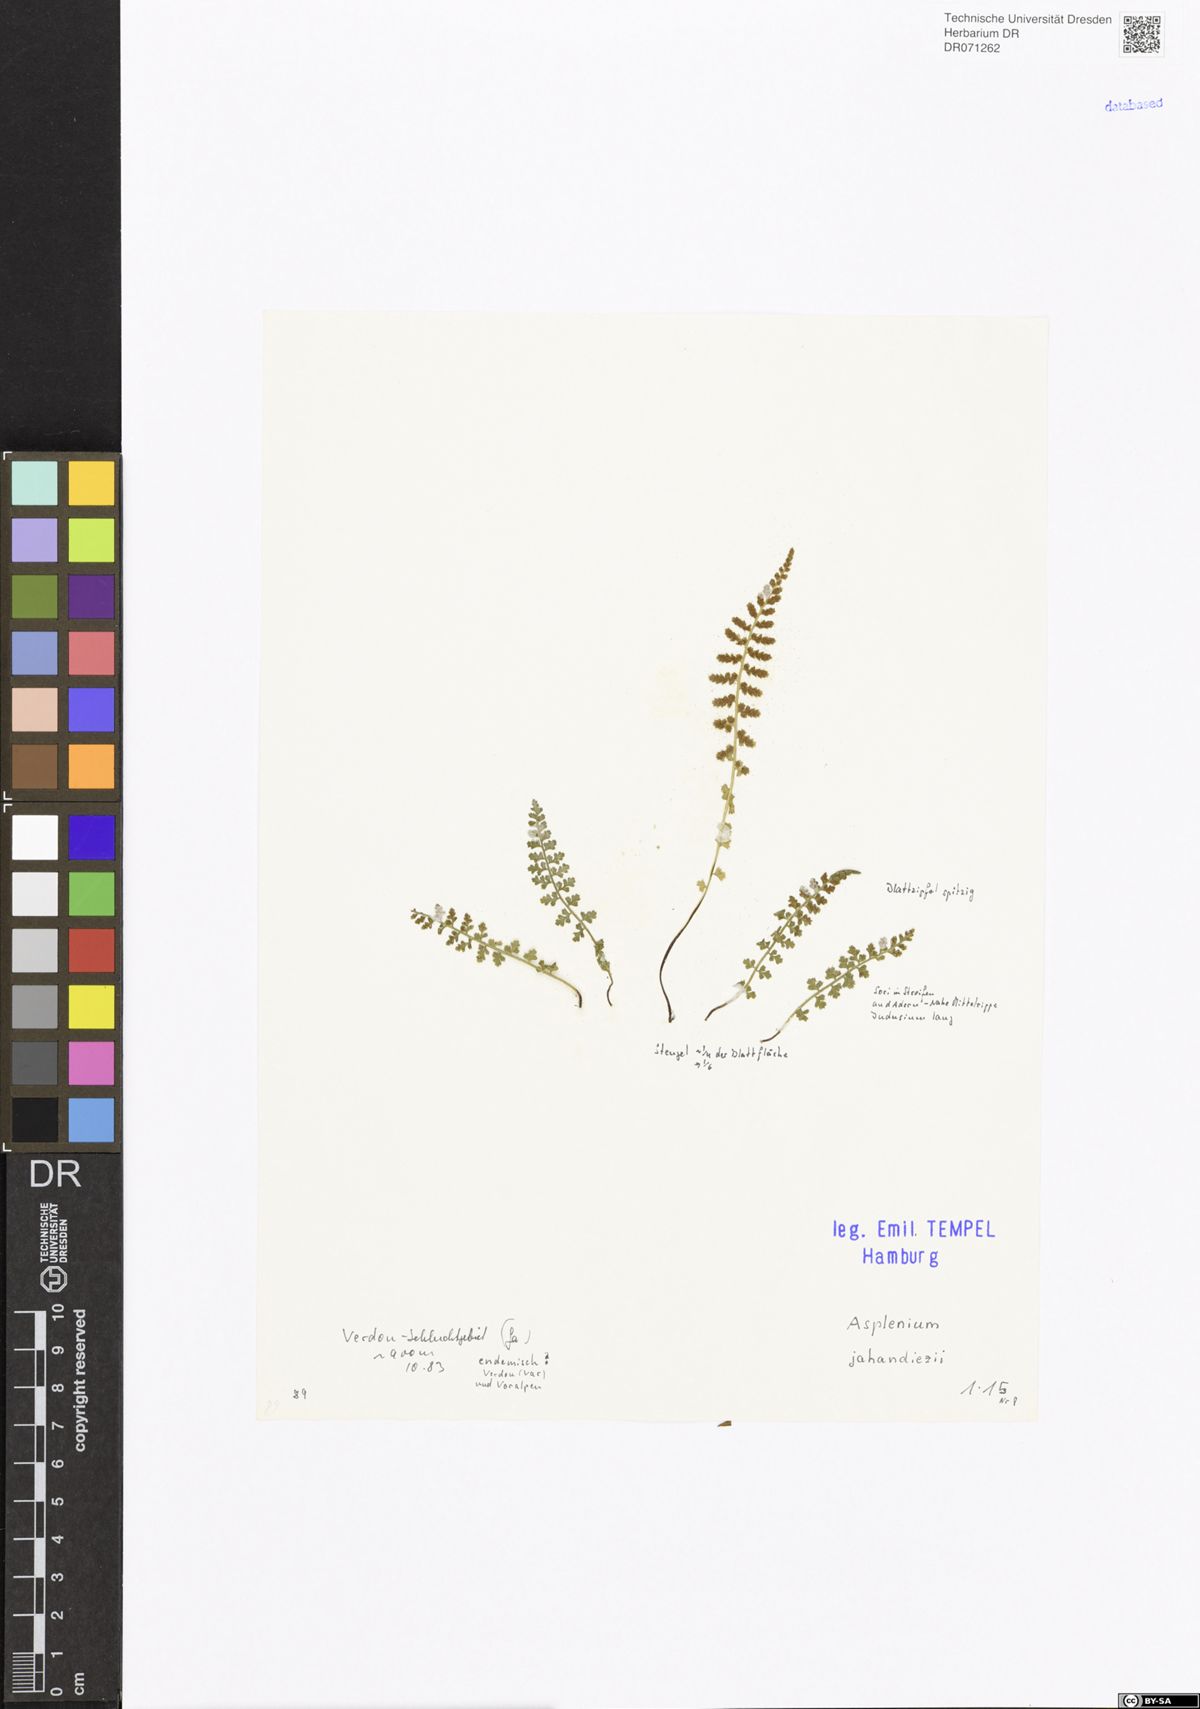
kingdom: Plantae
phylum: Tracheophyta
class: Polypodiopsida
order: Polypodiales
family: Aspleniaceae
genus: Asplenium
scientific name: Asplenium jahandiezii
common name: Verdon spleenwort
